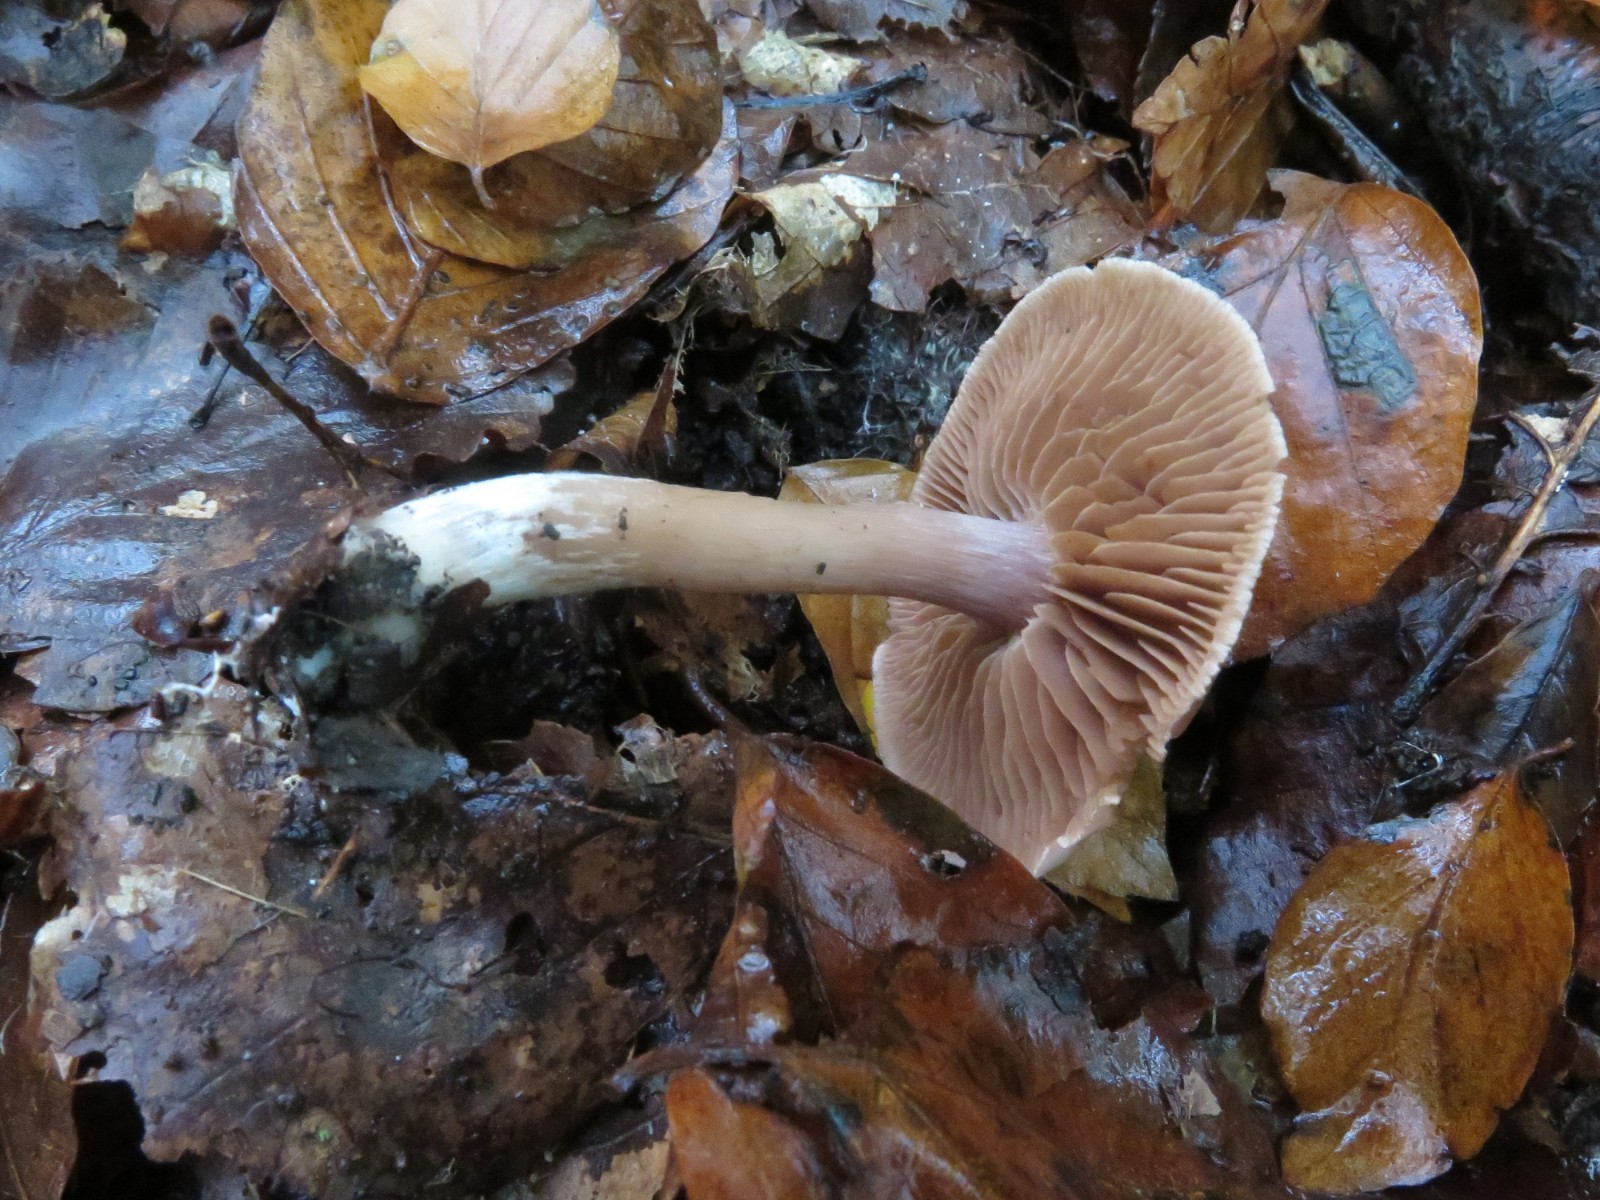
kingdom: Fungi
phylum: Basidiomycota
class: Agaricomycetes
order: Agaricales
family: Cortinariaceae
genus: Cortinarius
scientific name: Cortinarius
